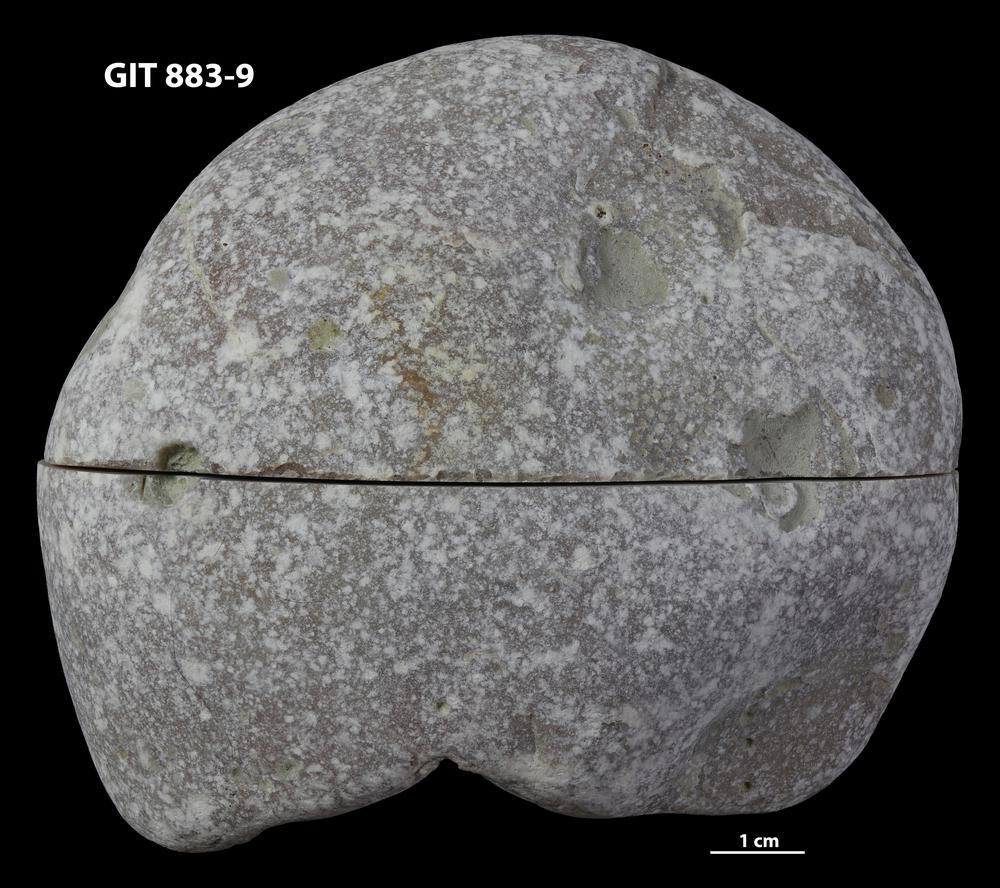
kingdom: Animalia
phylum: Porifera
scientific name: Porifera
